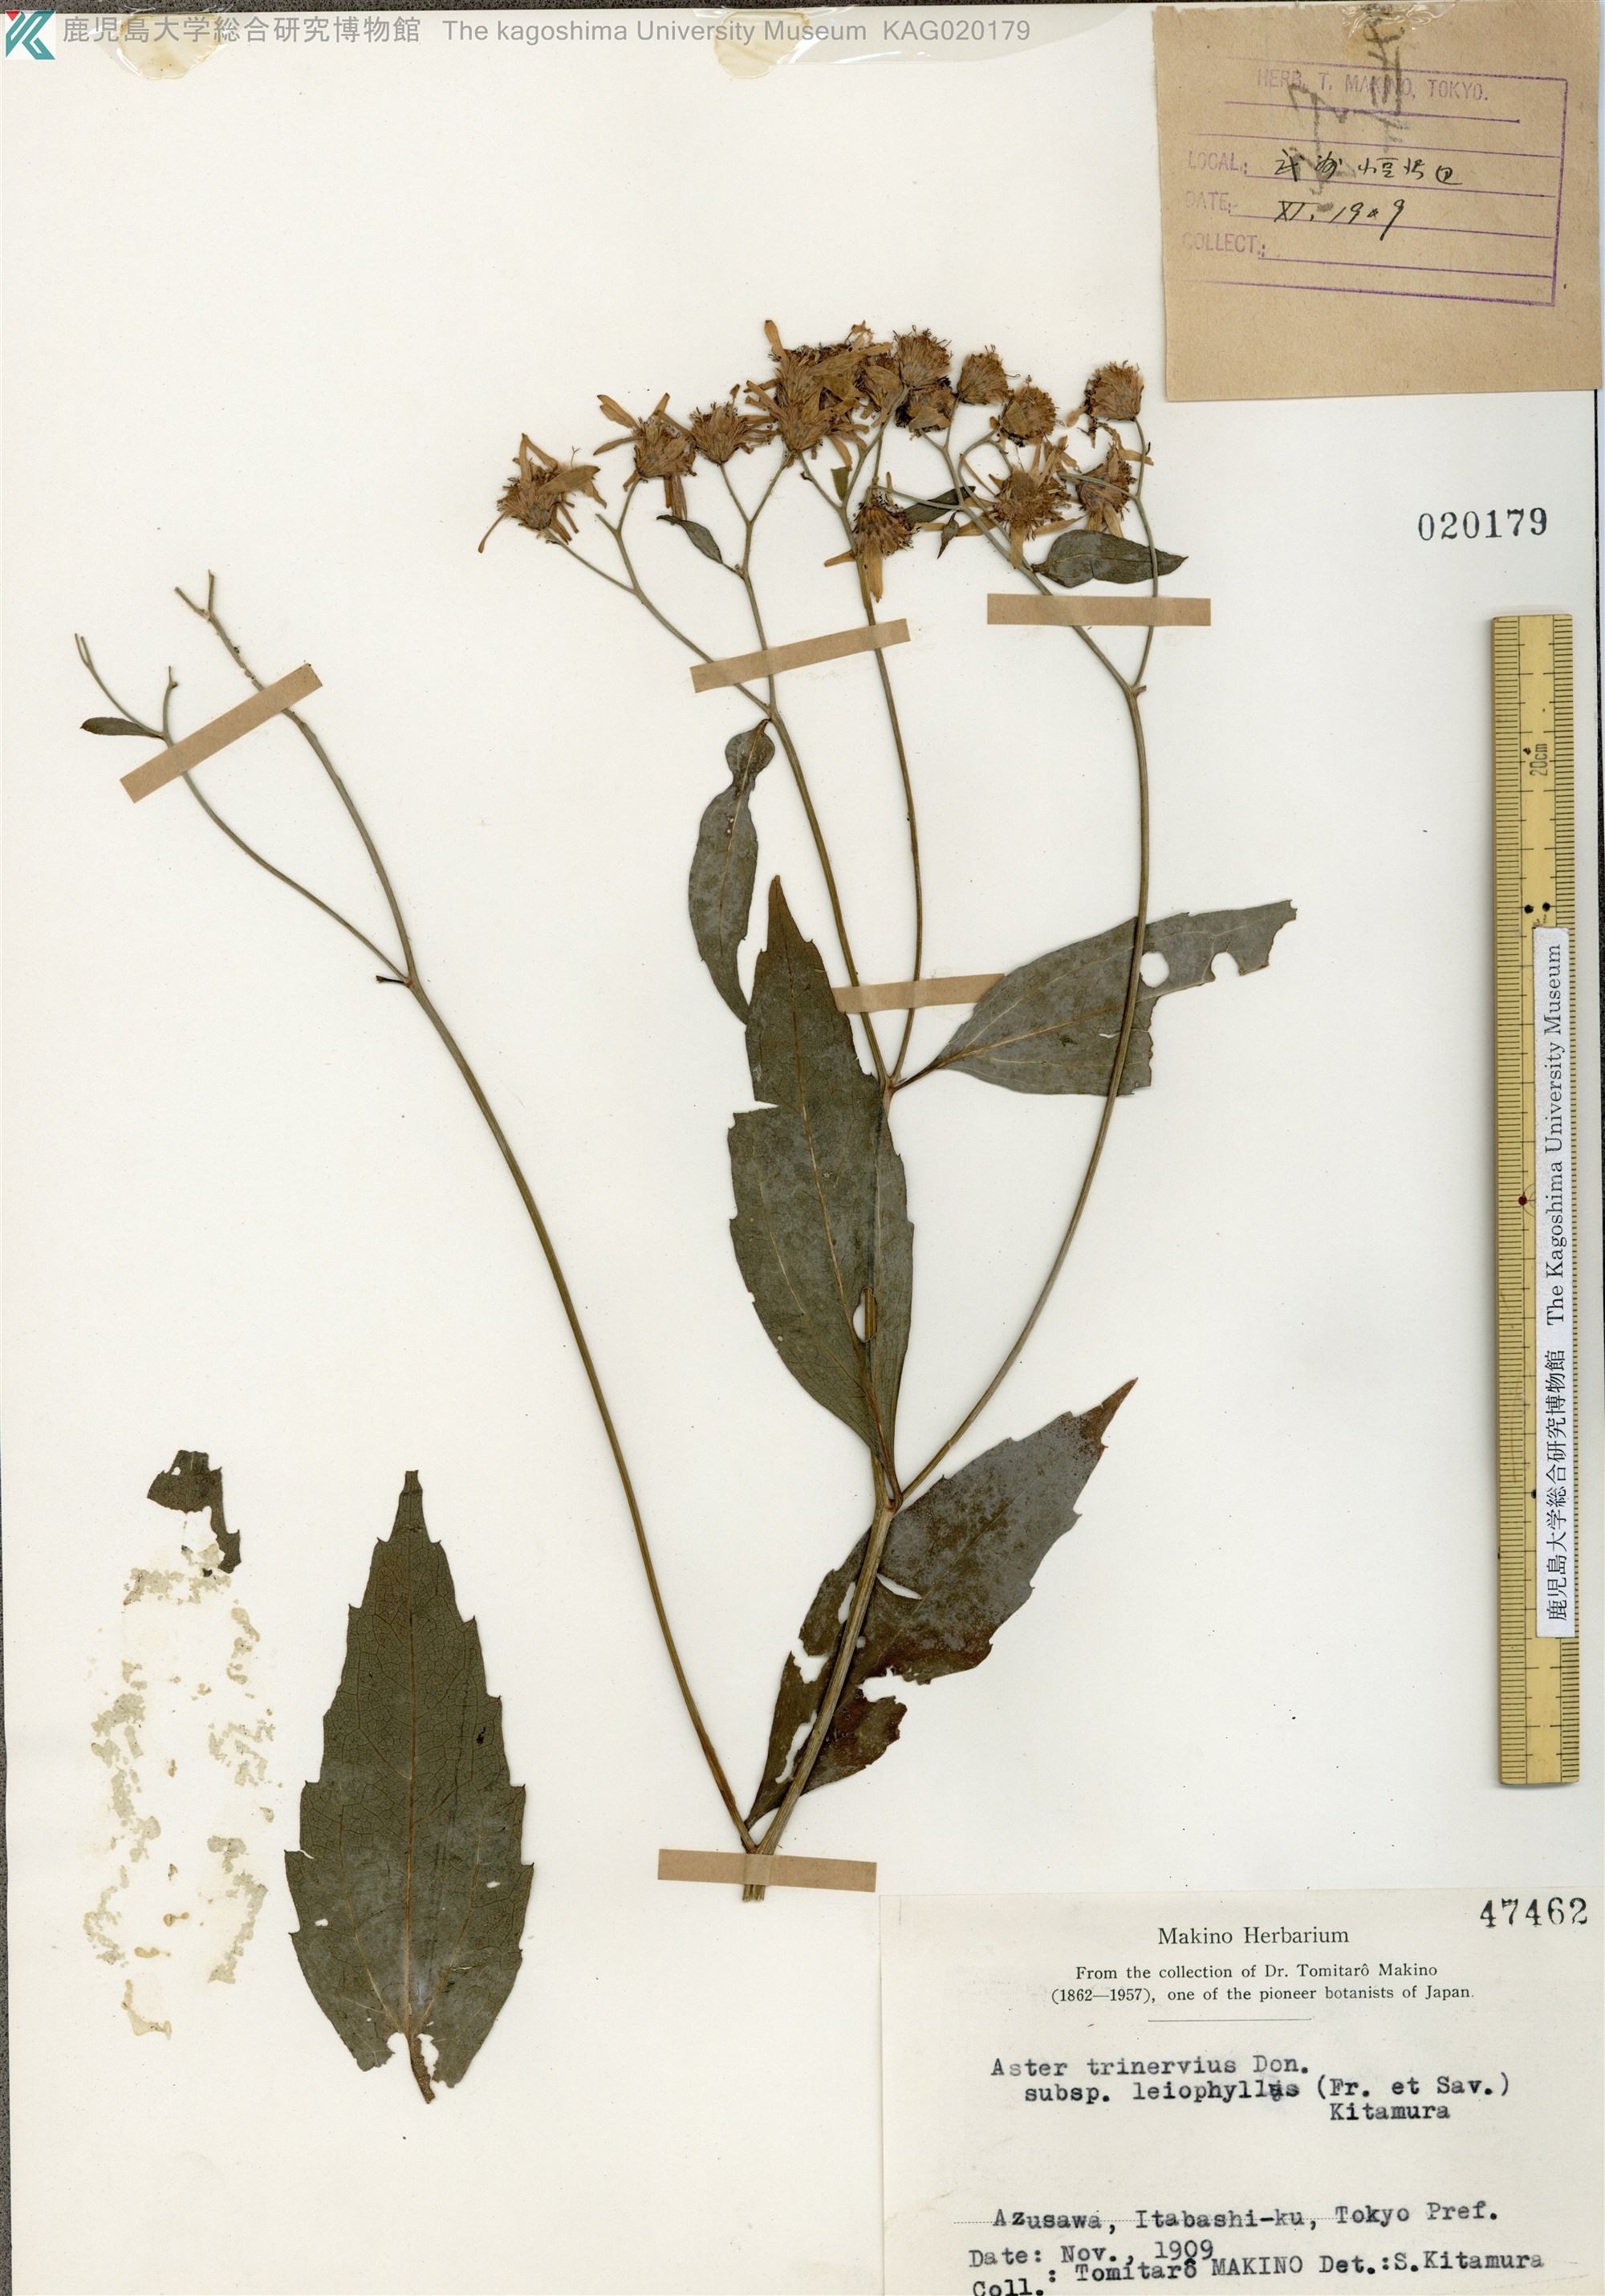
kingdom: Plantae
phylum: Tracheophyta
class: Magnoliopsida
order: Asterales
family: Asteraceae
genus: Aster
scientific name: Aster ageratoides
